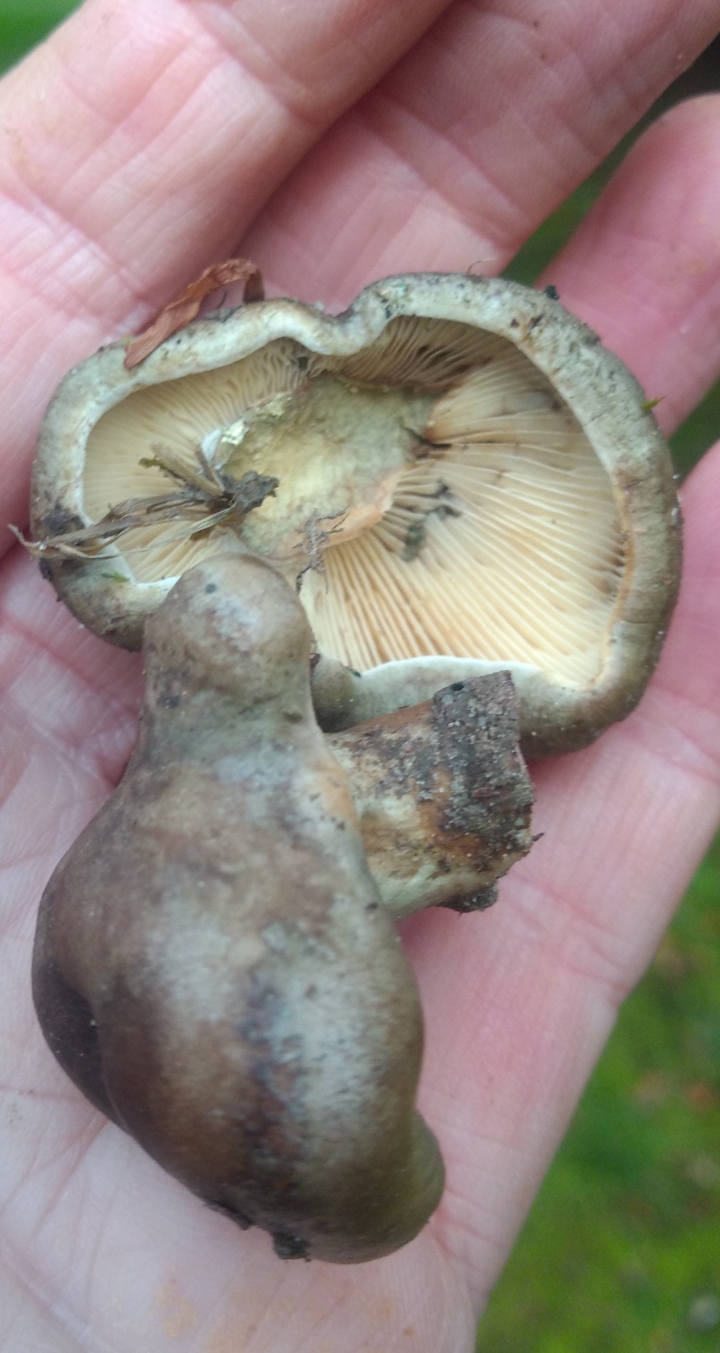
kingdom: Fungi
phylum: Basidiomycota
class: Agaricomycetes
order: Russulales
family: Russulaceae
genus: Lactarius
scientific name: Lactarius
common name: mælkehat
